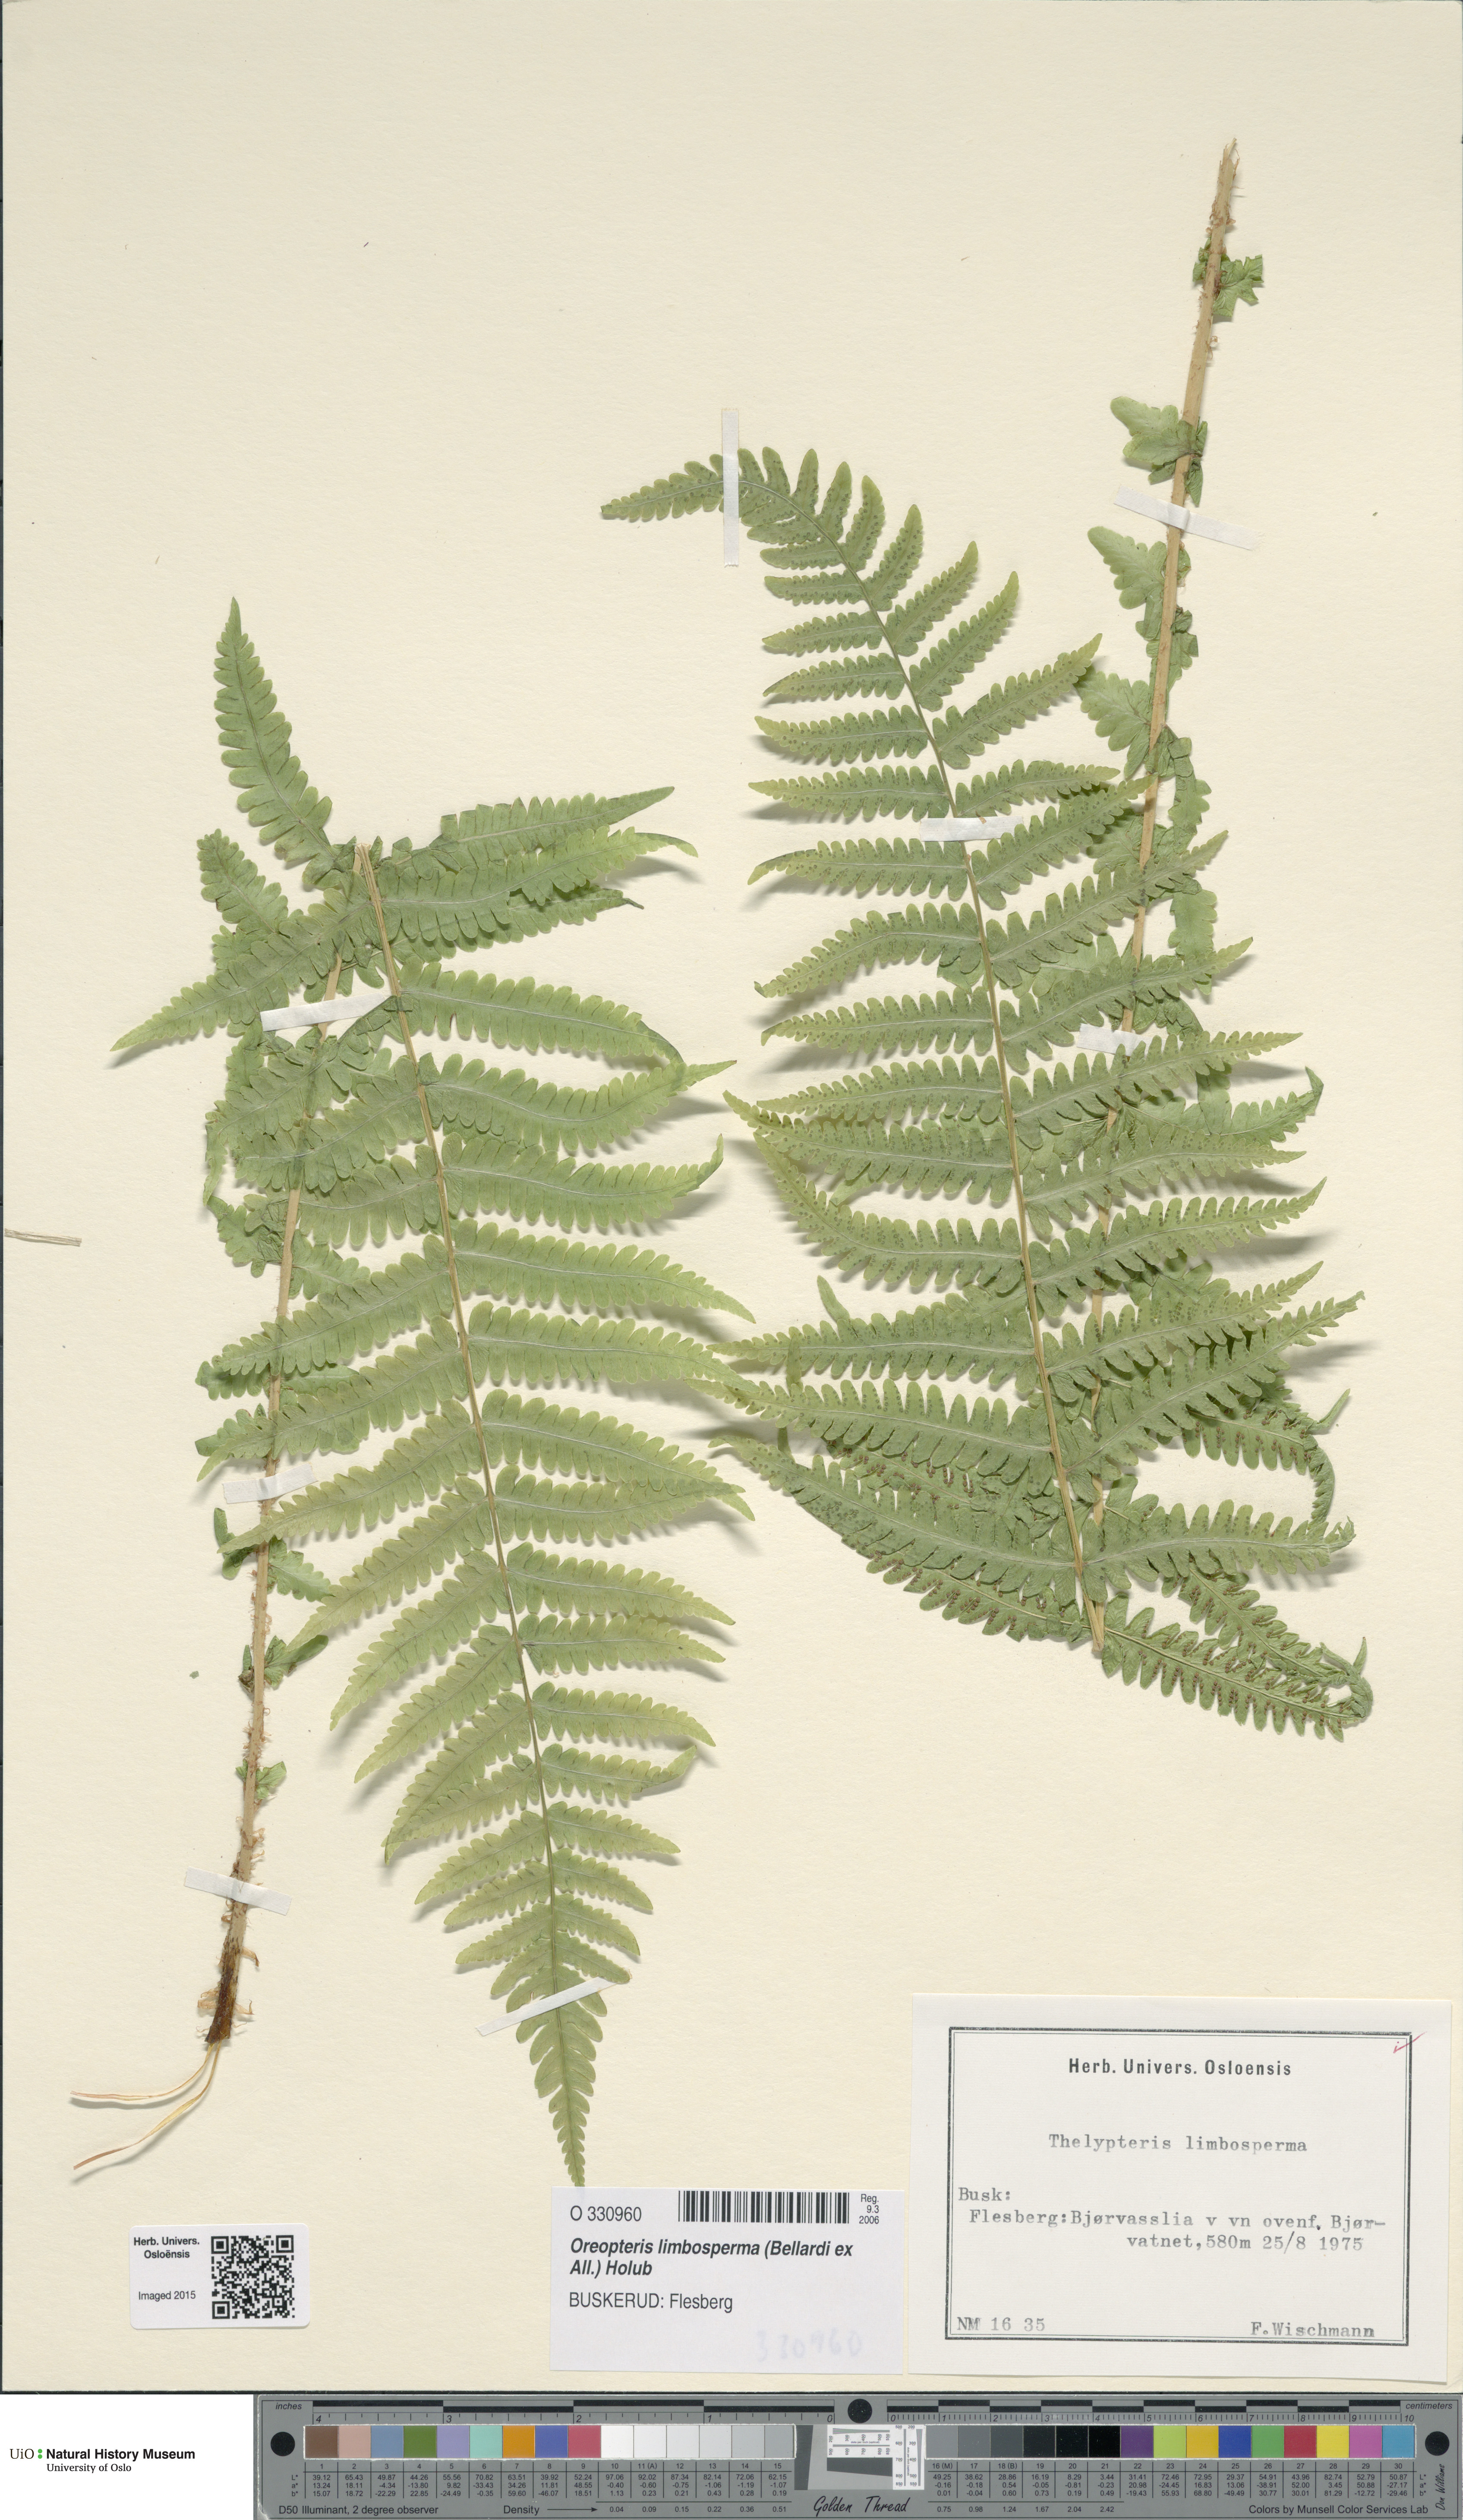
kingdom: Plantae
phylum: Tracheophyta
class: Polypodiopsida
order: Polypodiales
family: Thelypteridaceae
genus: Oreopteris
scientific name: Oreopteris limbosperma
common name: Lemon-scented fern
